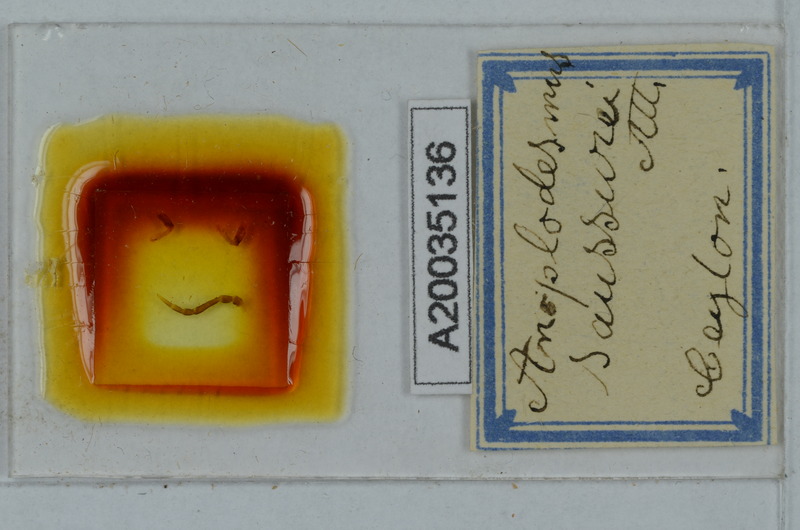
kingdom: Animalia
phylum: Arthropoda
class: Diplopoda
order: Polydesmida
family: Paradoxosomatidae
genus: Anoplodesmus
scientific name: Anoplodesmus saussurii
